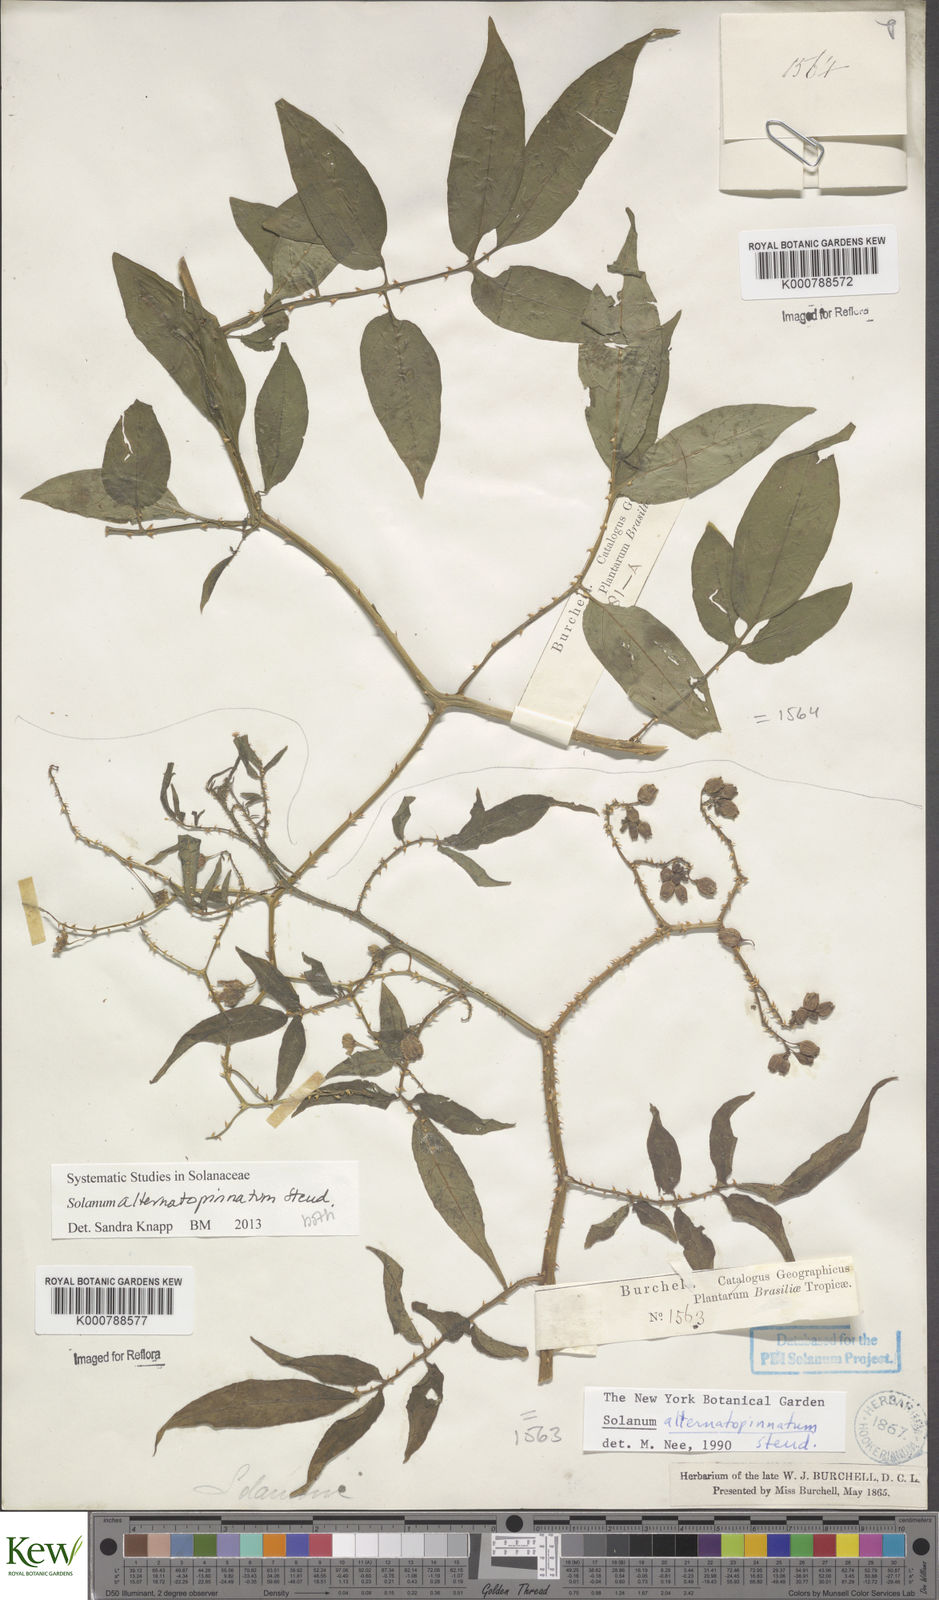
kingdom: Plantae
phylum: Tracheophyta
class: Magnoliopsida
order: Solanales
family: Solanaceae
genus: Solanum
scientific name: Solanum alternatopinnatum
